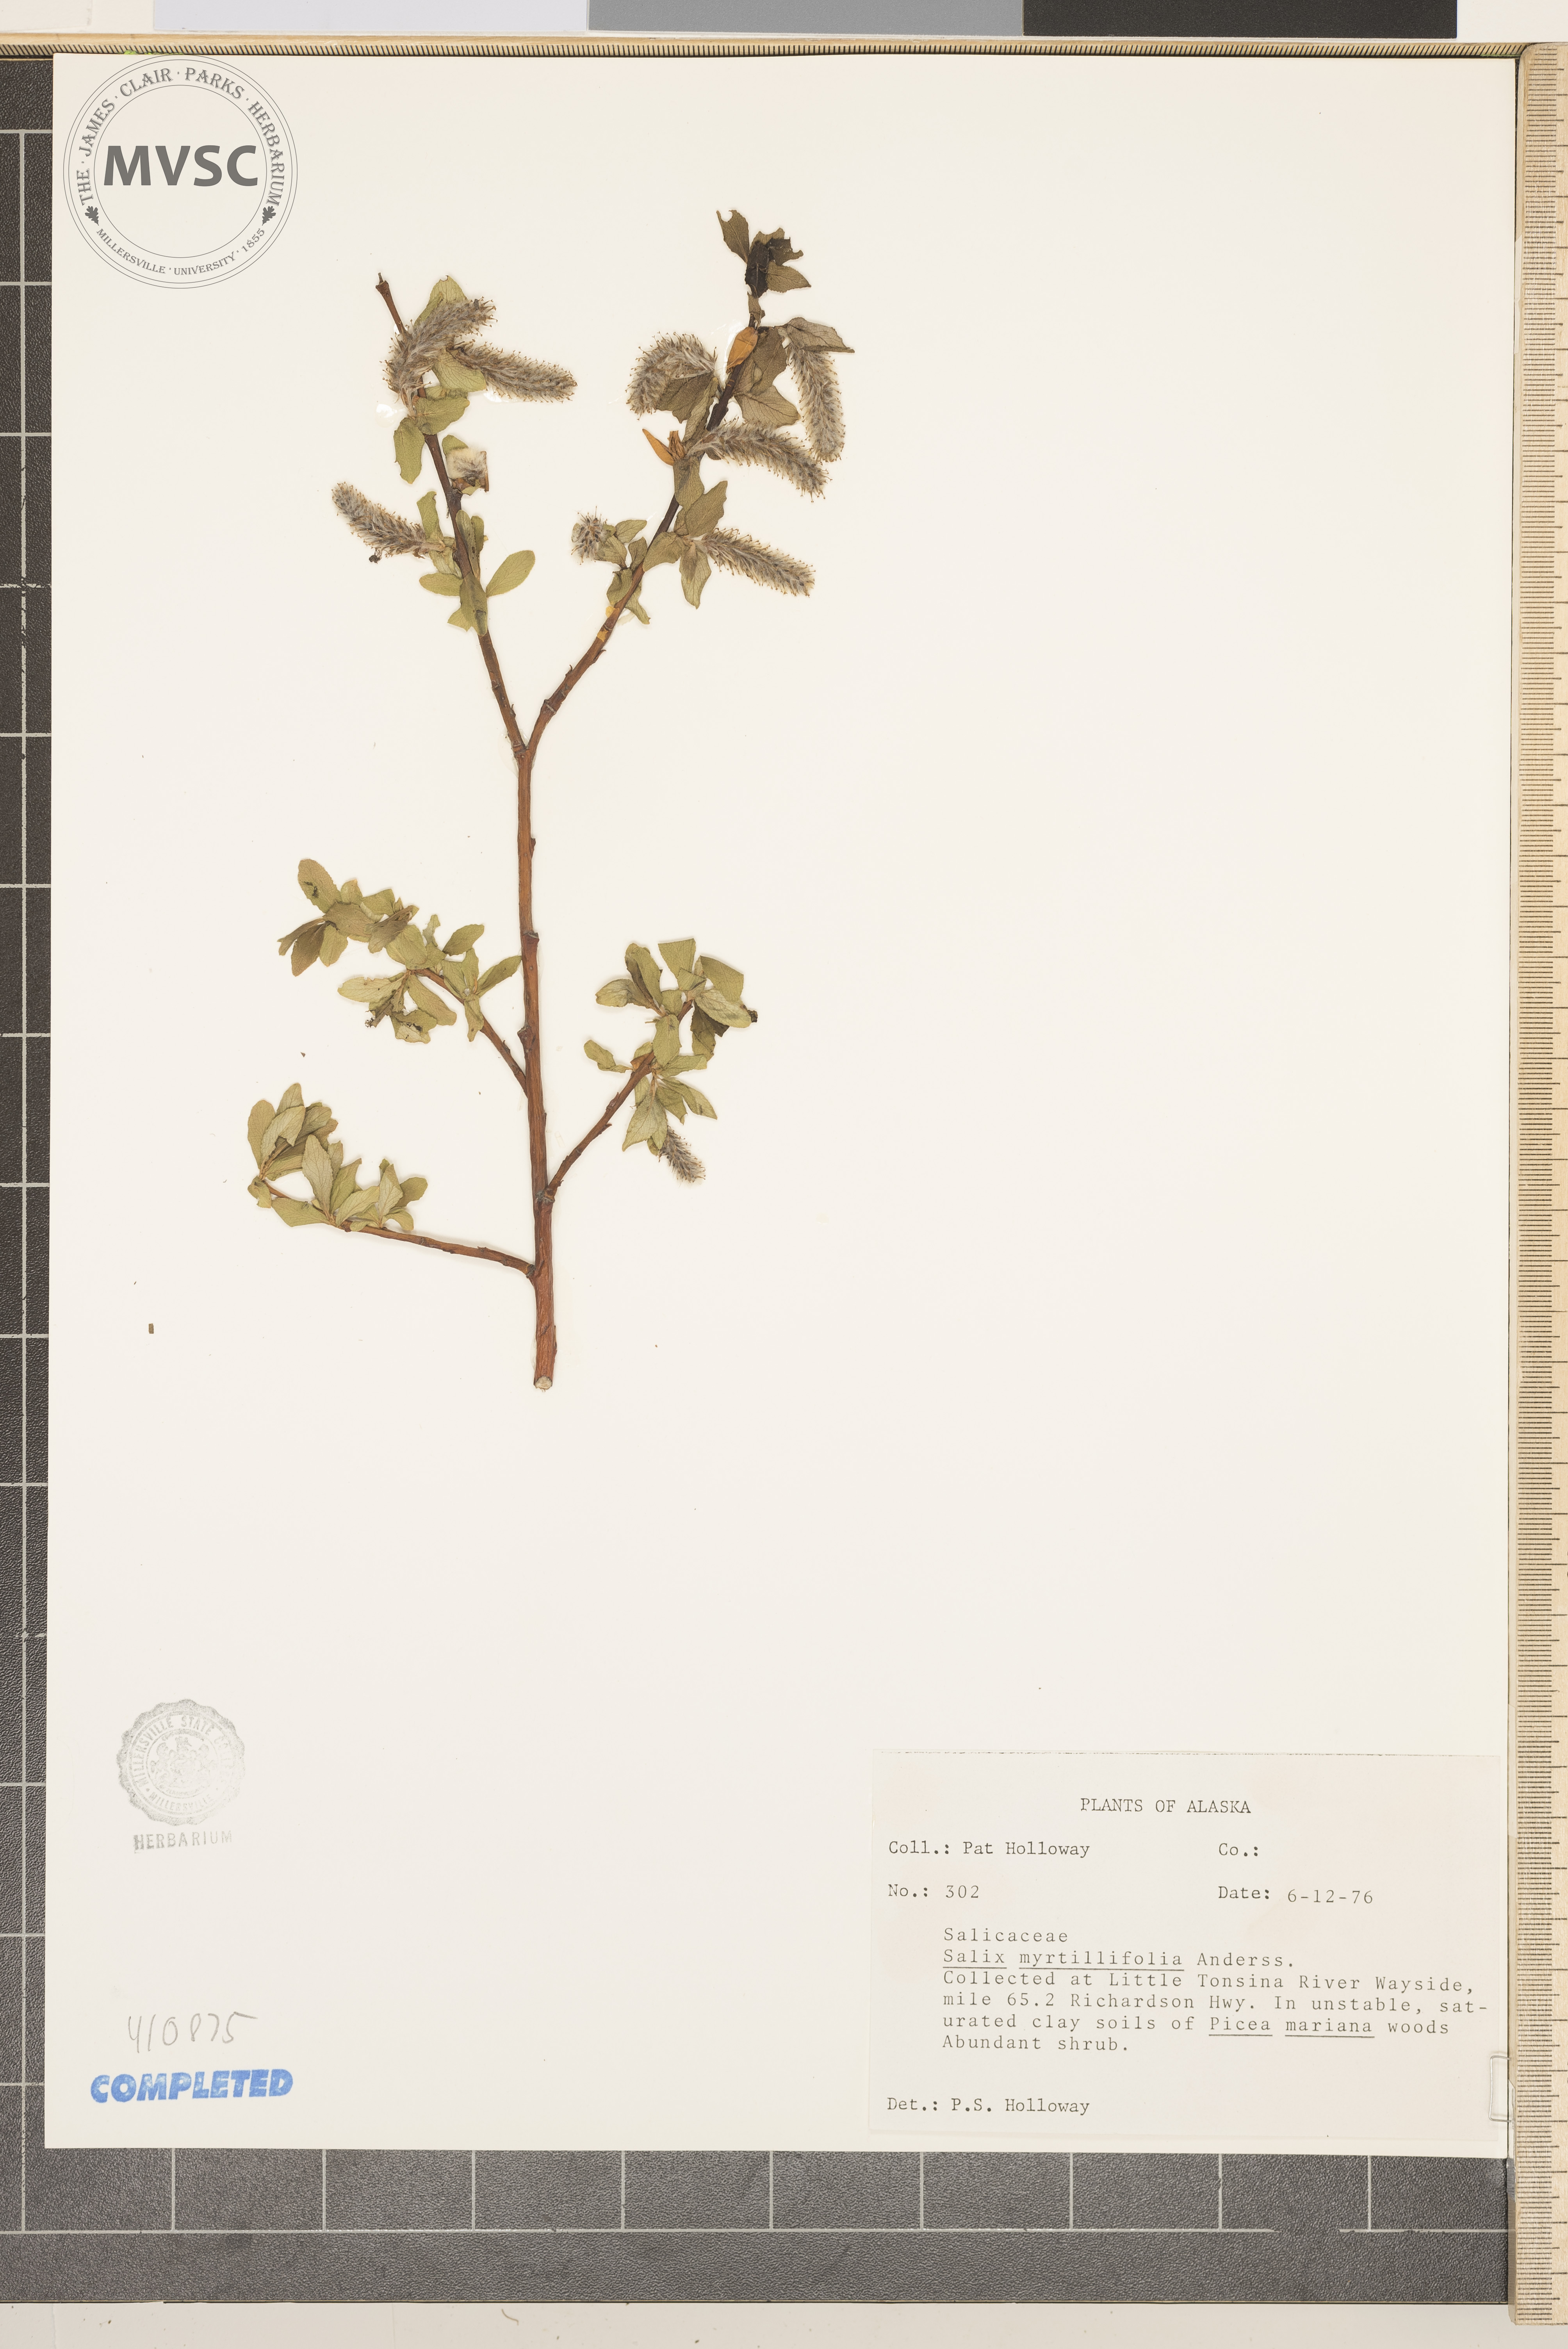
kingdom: Plantae
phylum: Tracheophyta
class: Magnoliopsida
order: Malpighiales
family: Salicaceae
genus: Salix
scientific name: Salix myrtillifolia
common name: Bilberry willow
